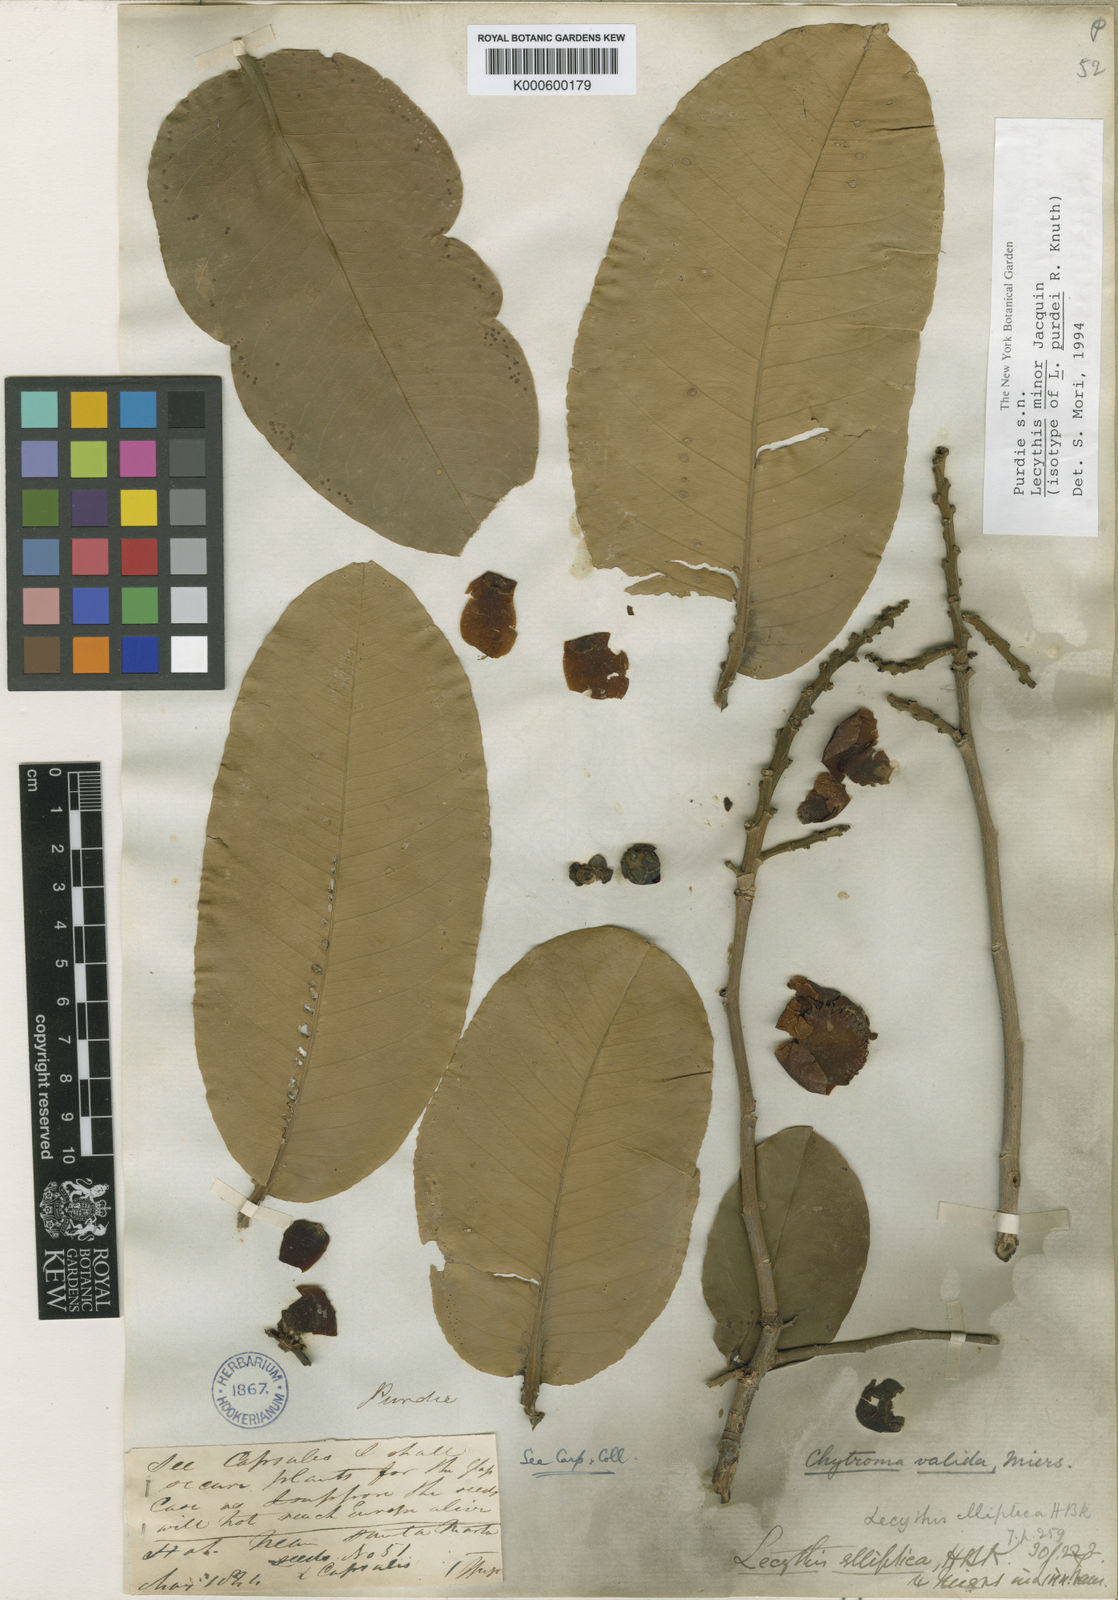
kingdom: Plantae
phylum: Tracheophyta
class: Magnoliopsida
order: Ericales
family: Lecythidaceae
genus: Lecythis
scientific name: Lecythis minor
